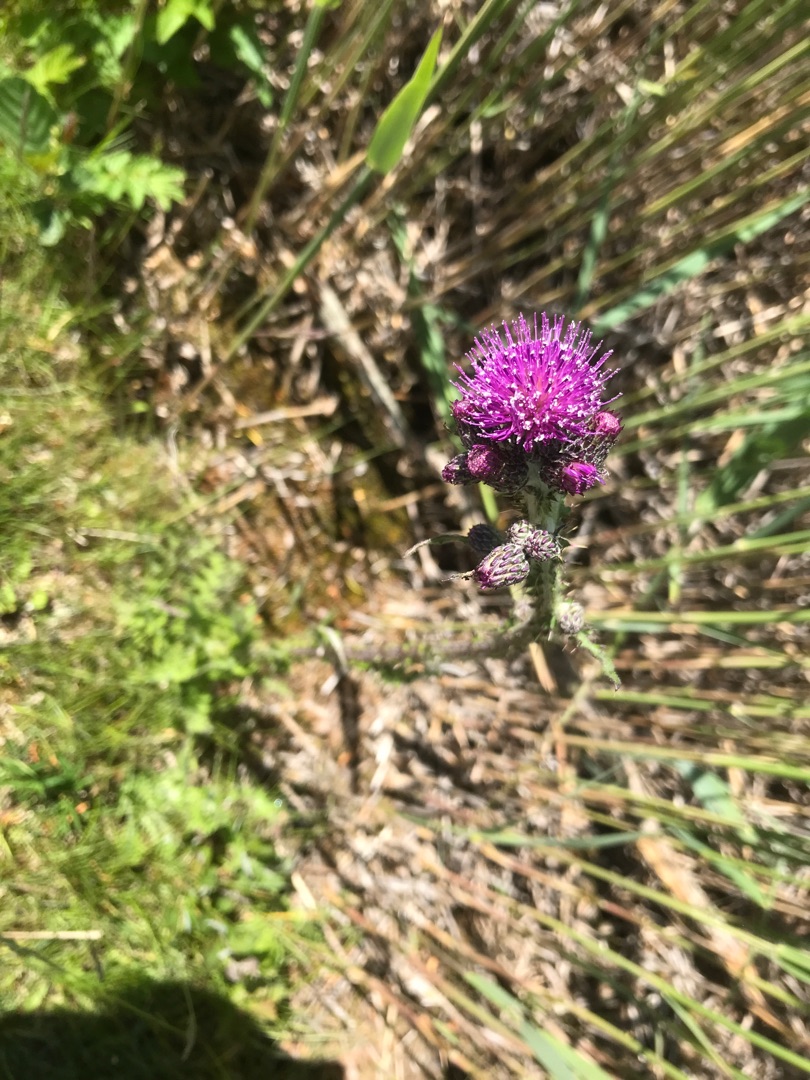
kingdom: Plantae
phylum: Tracheophyta
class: Magnoliopsida
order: Asterales
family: Asteraceae
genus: Cirsium
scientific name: Cirsium palustre
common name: Kær-tidsel
